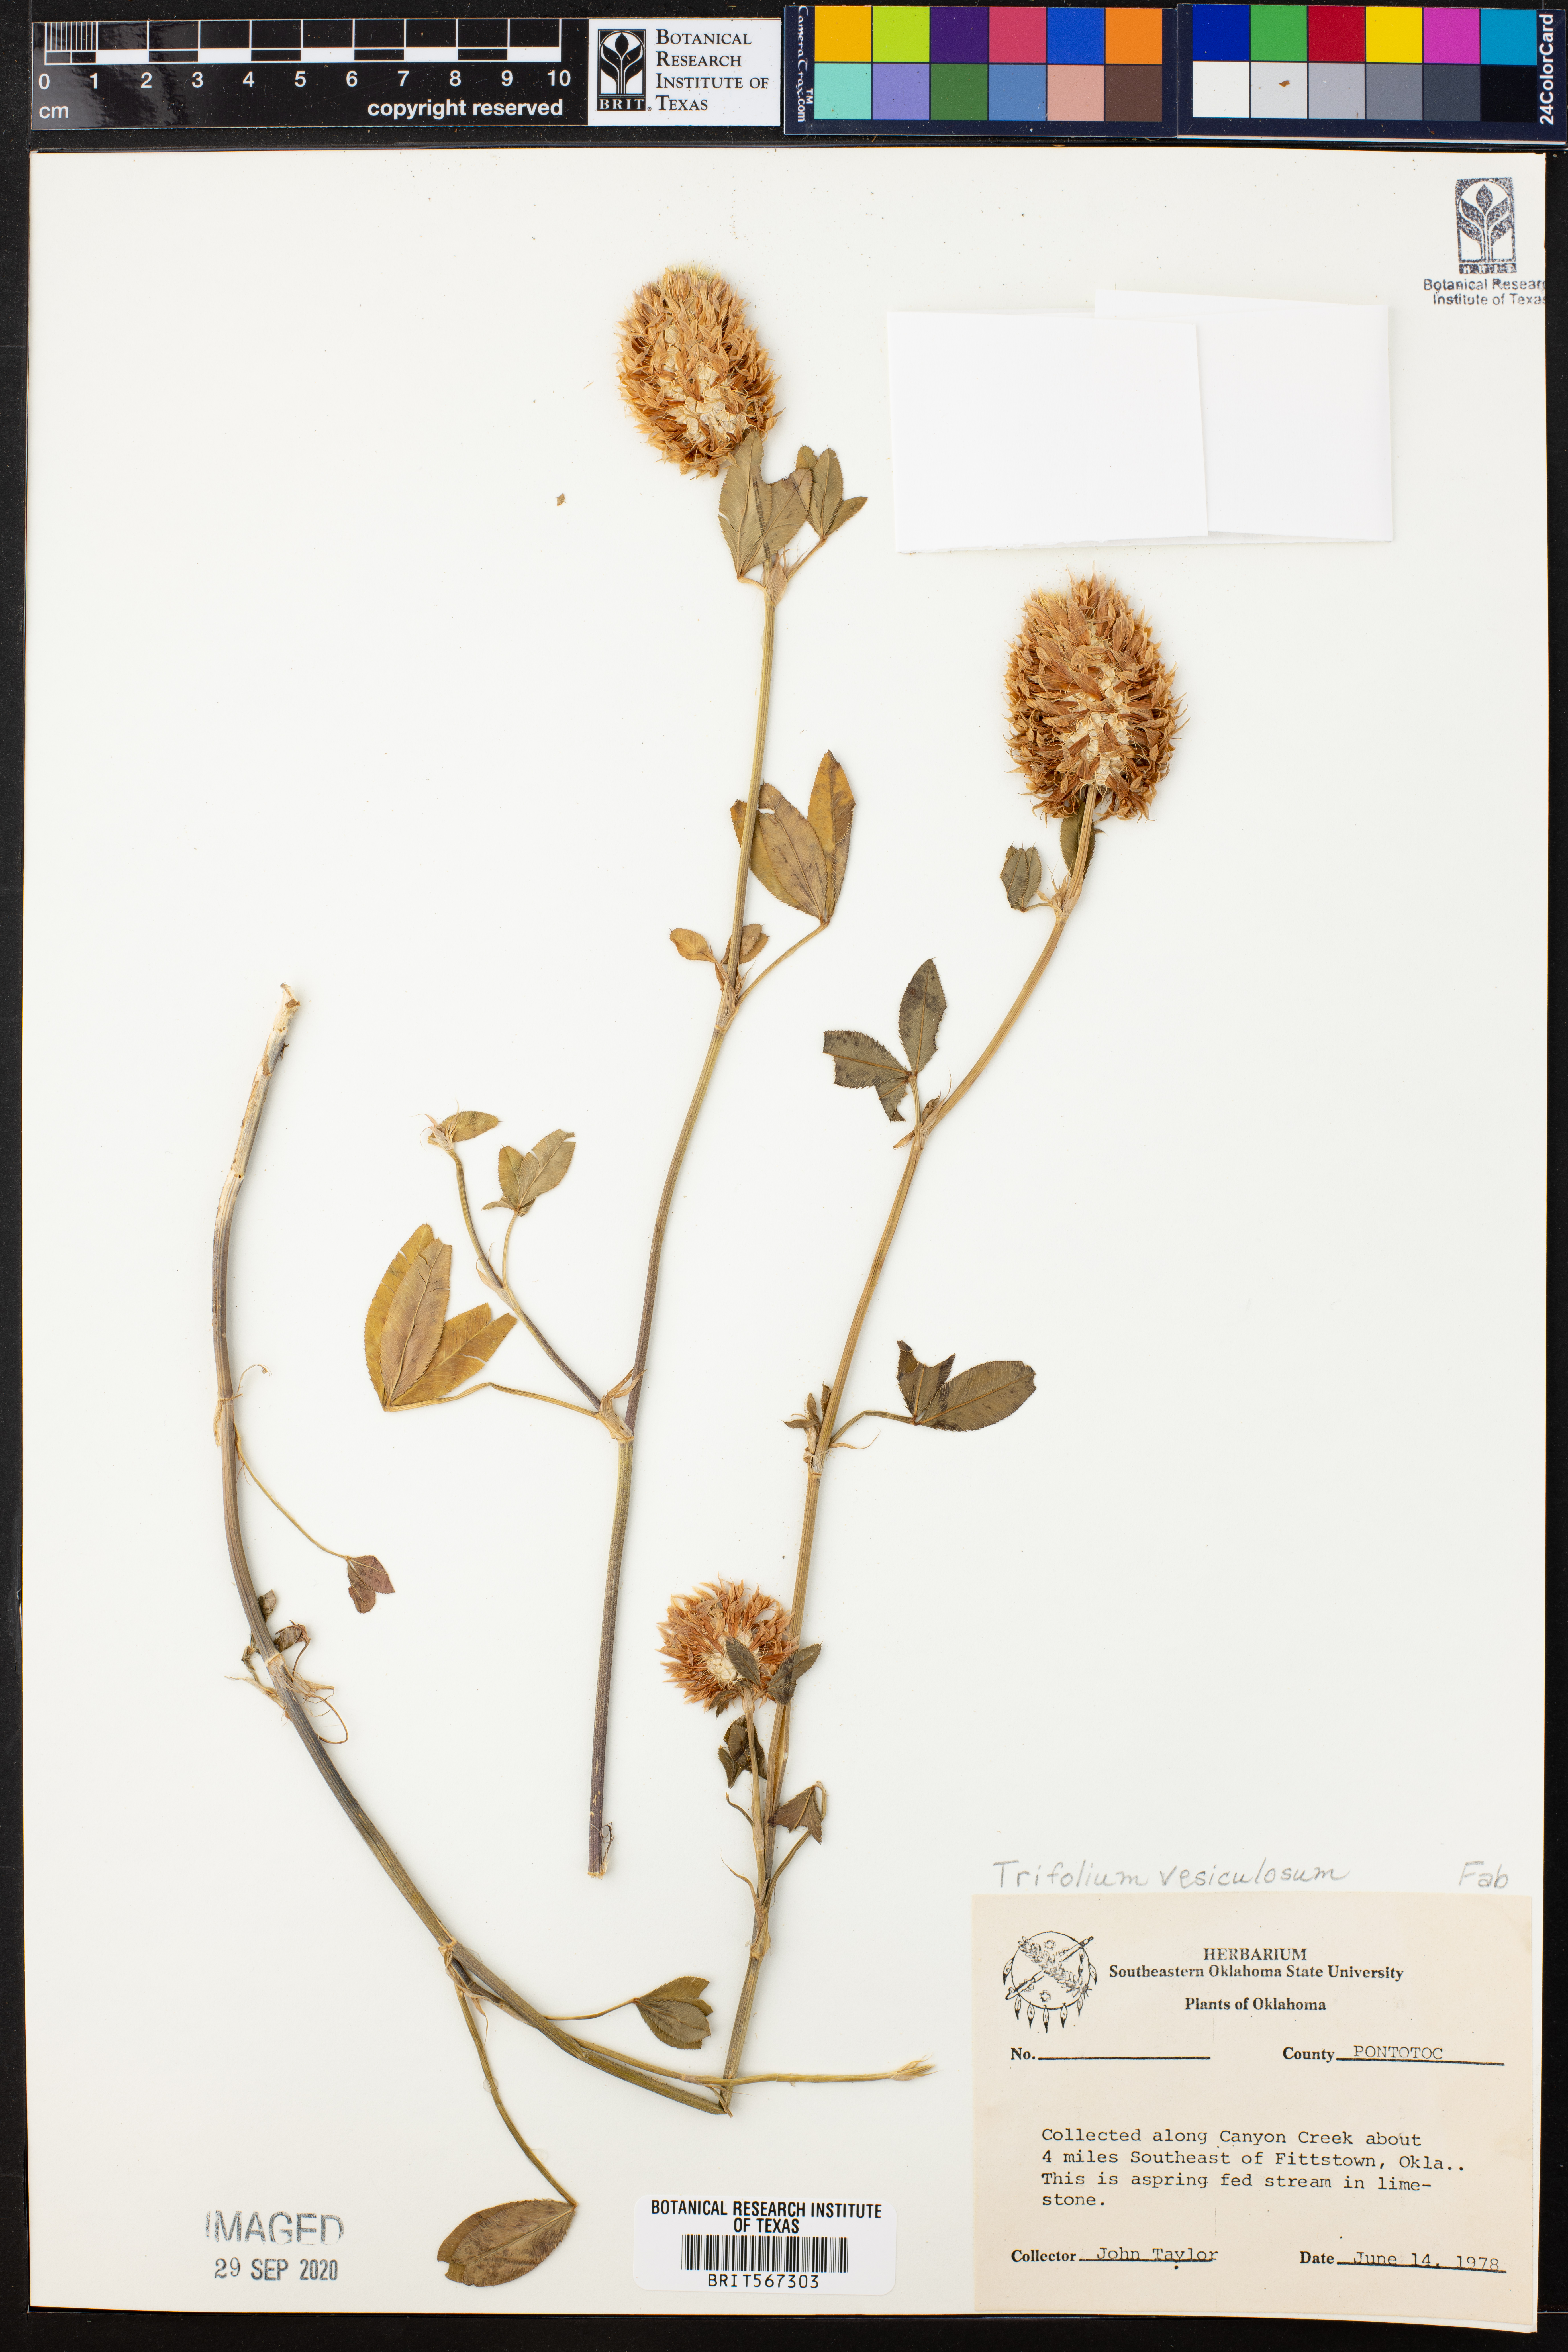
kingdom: Plantae
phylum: Tracheophyta
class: Magnoliopsida
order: Fabales
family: Fabaceae
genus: Trifolium
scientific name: Trifolium vesiculosum
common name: Arrowleaf clover
